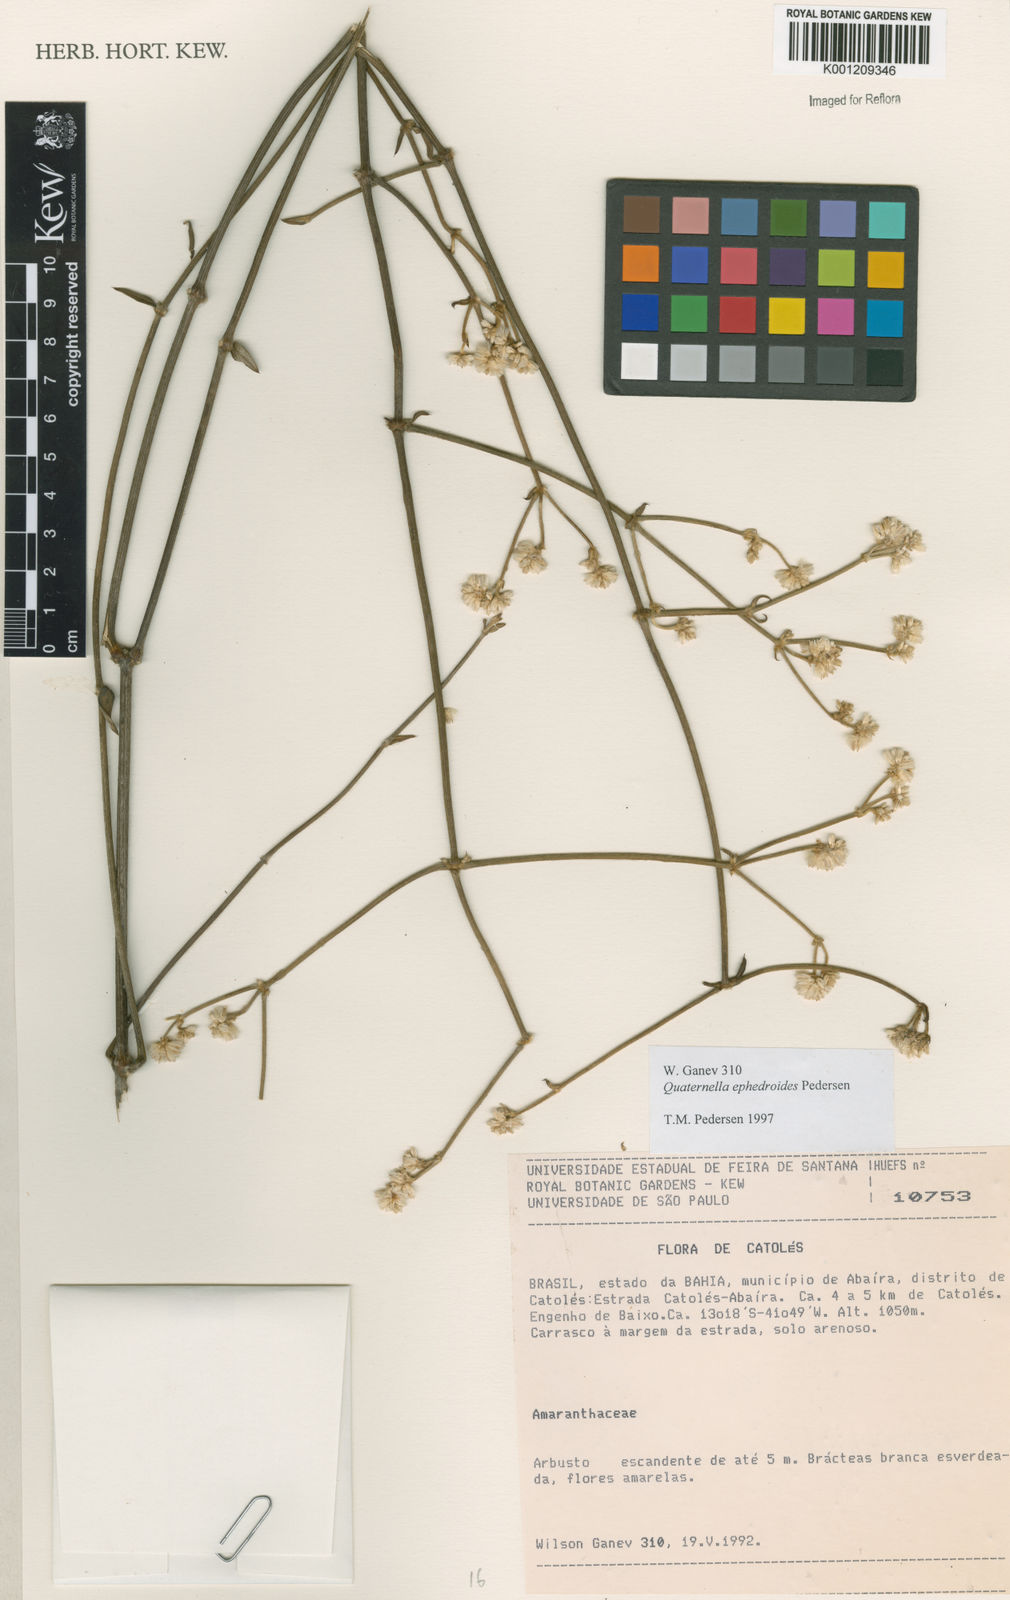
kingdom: Plantae
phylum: Tracheophyta
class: Magnoliopsida
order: Caryophyllales
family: Amaranthaceae
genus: Quaternella
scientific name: Quaternella ephedroides
